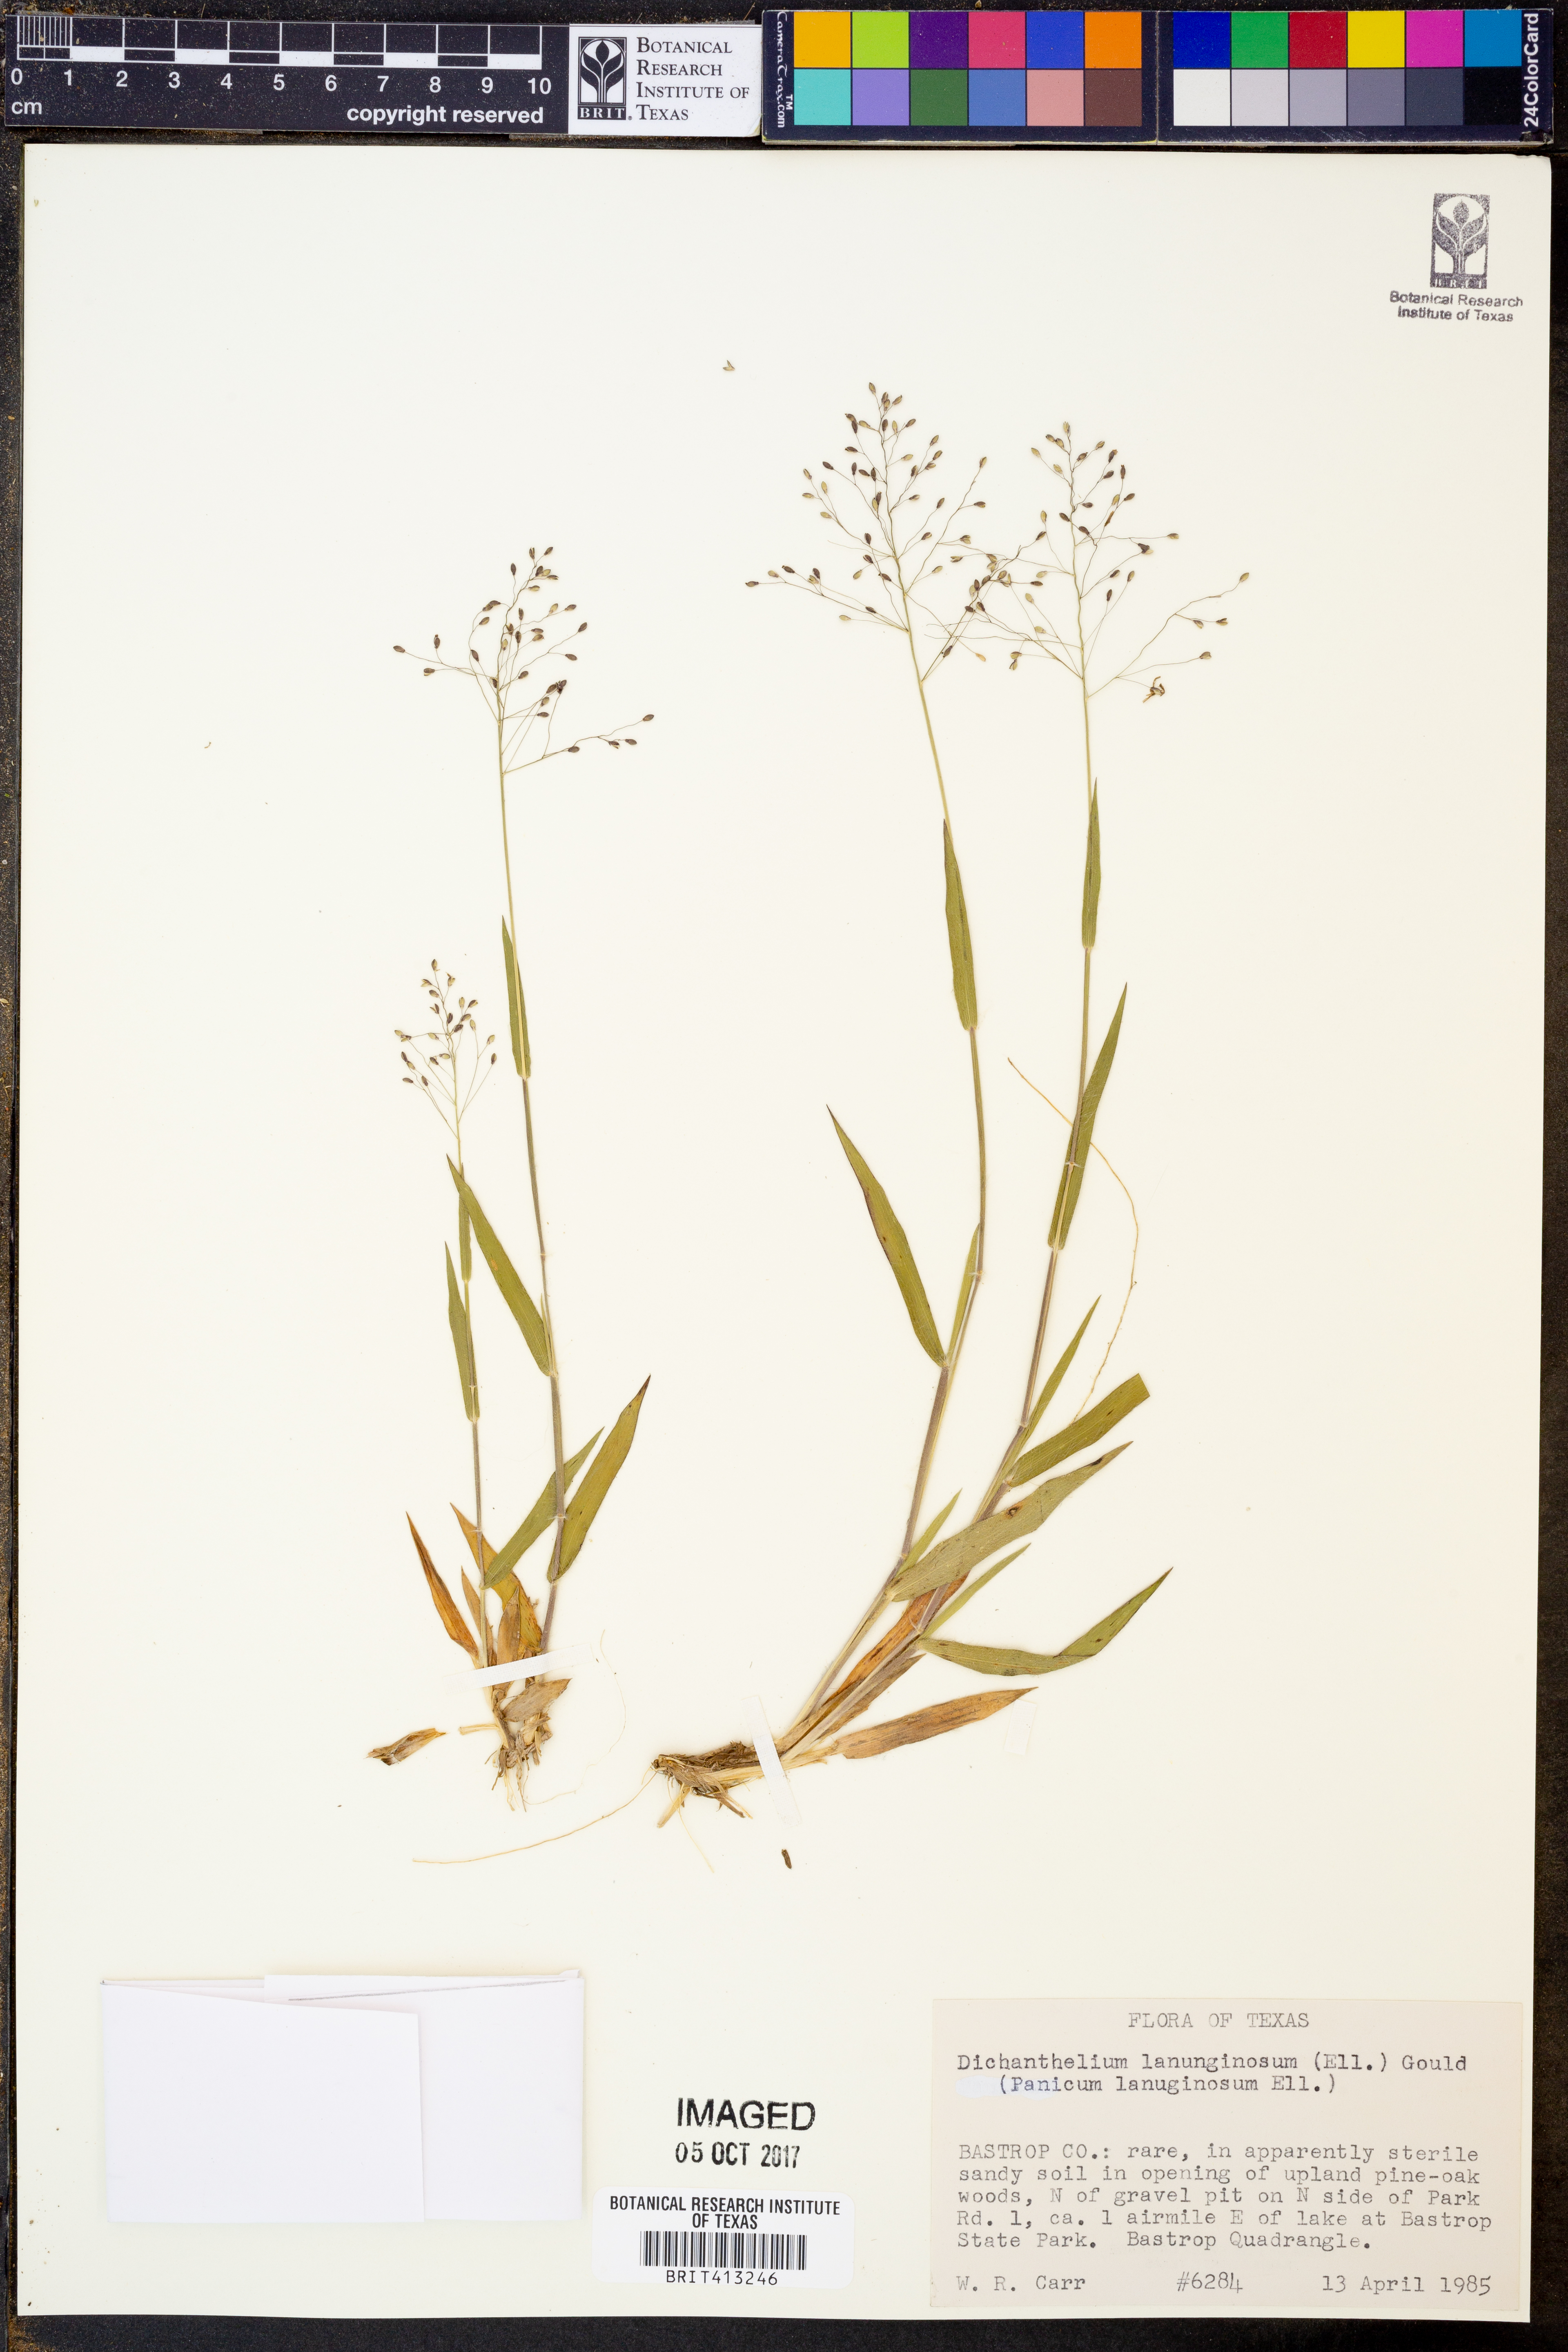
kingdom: Plantae
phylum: Tracheophyta
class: Liliopsida
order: Poales
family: Poaceae
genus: Dichanthelium
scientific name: Dichanthelium lanuginosum
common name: Woolly panicgrass
